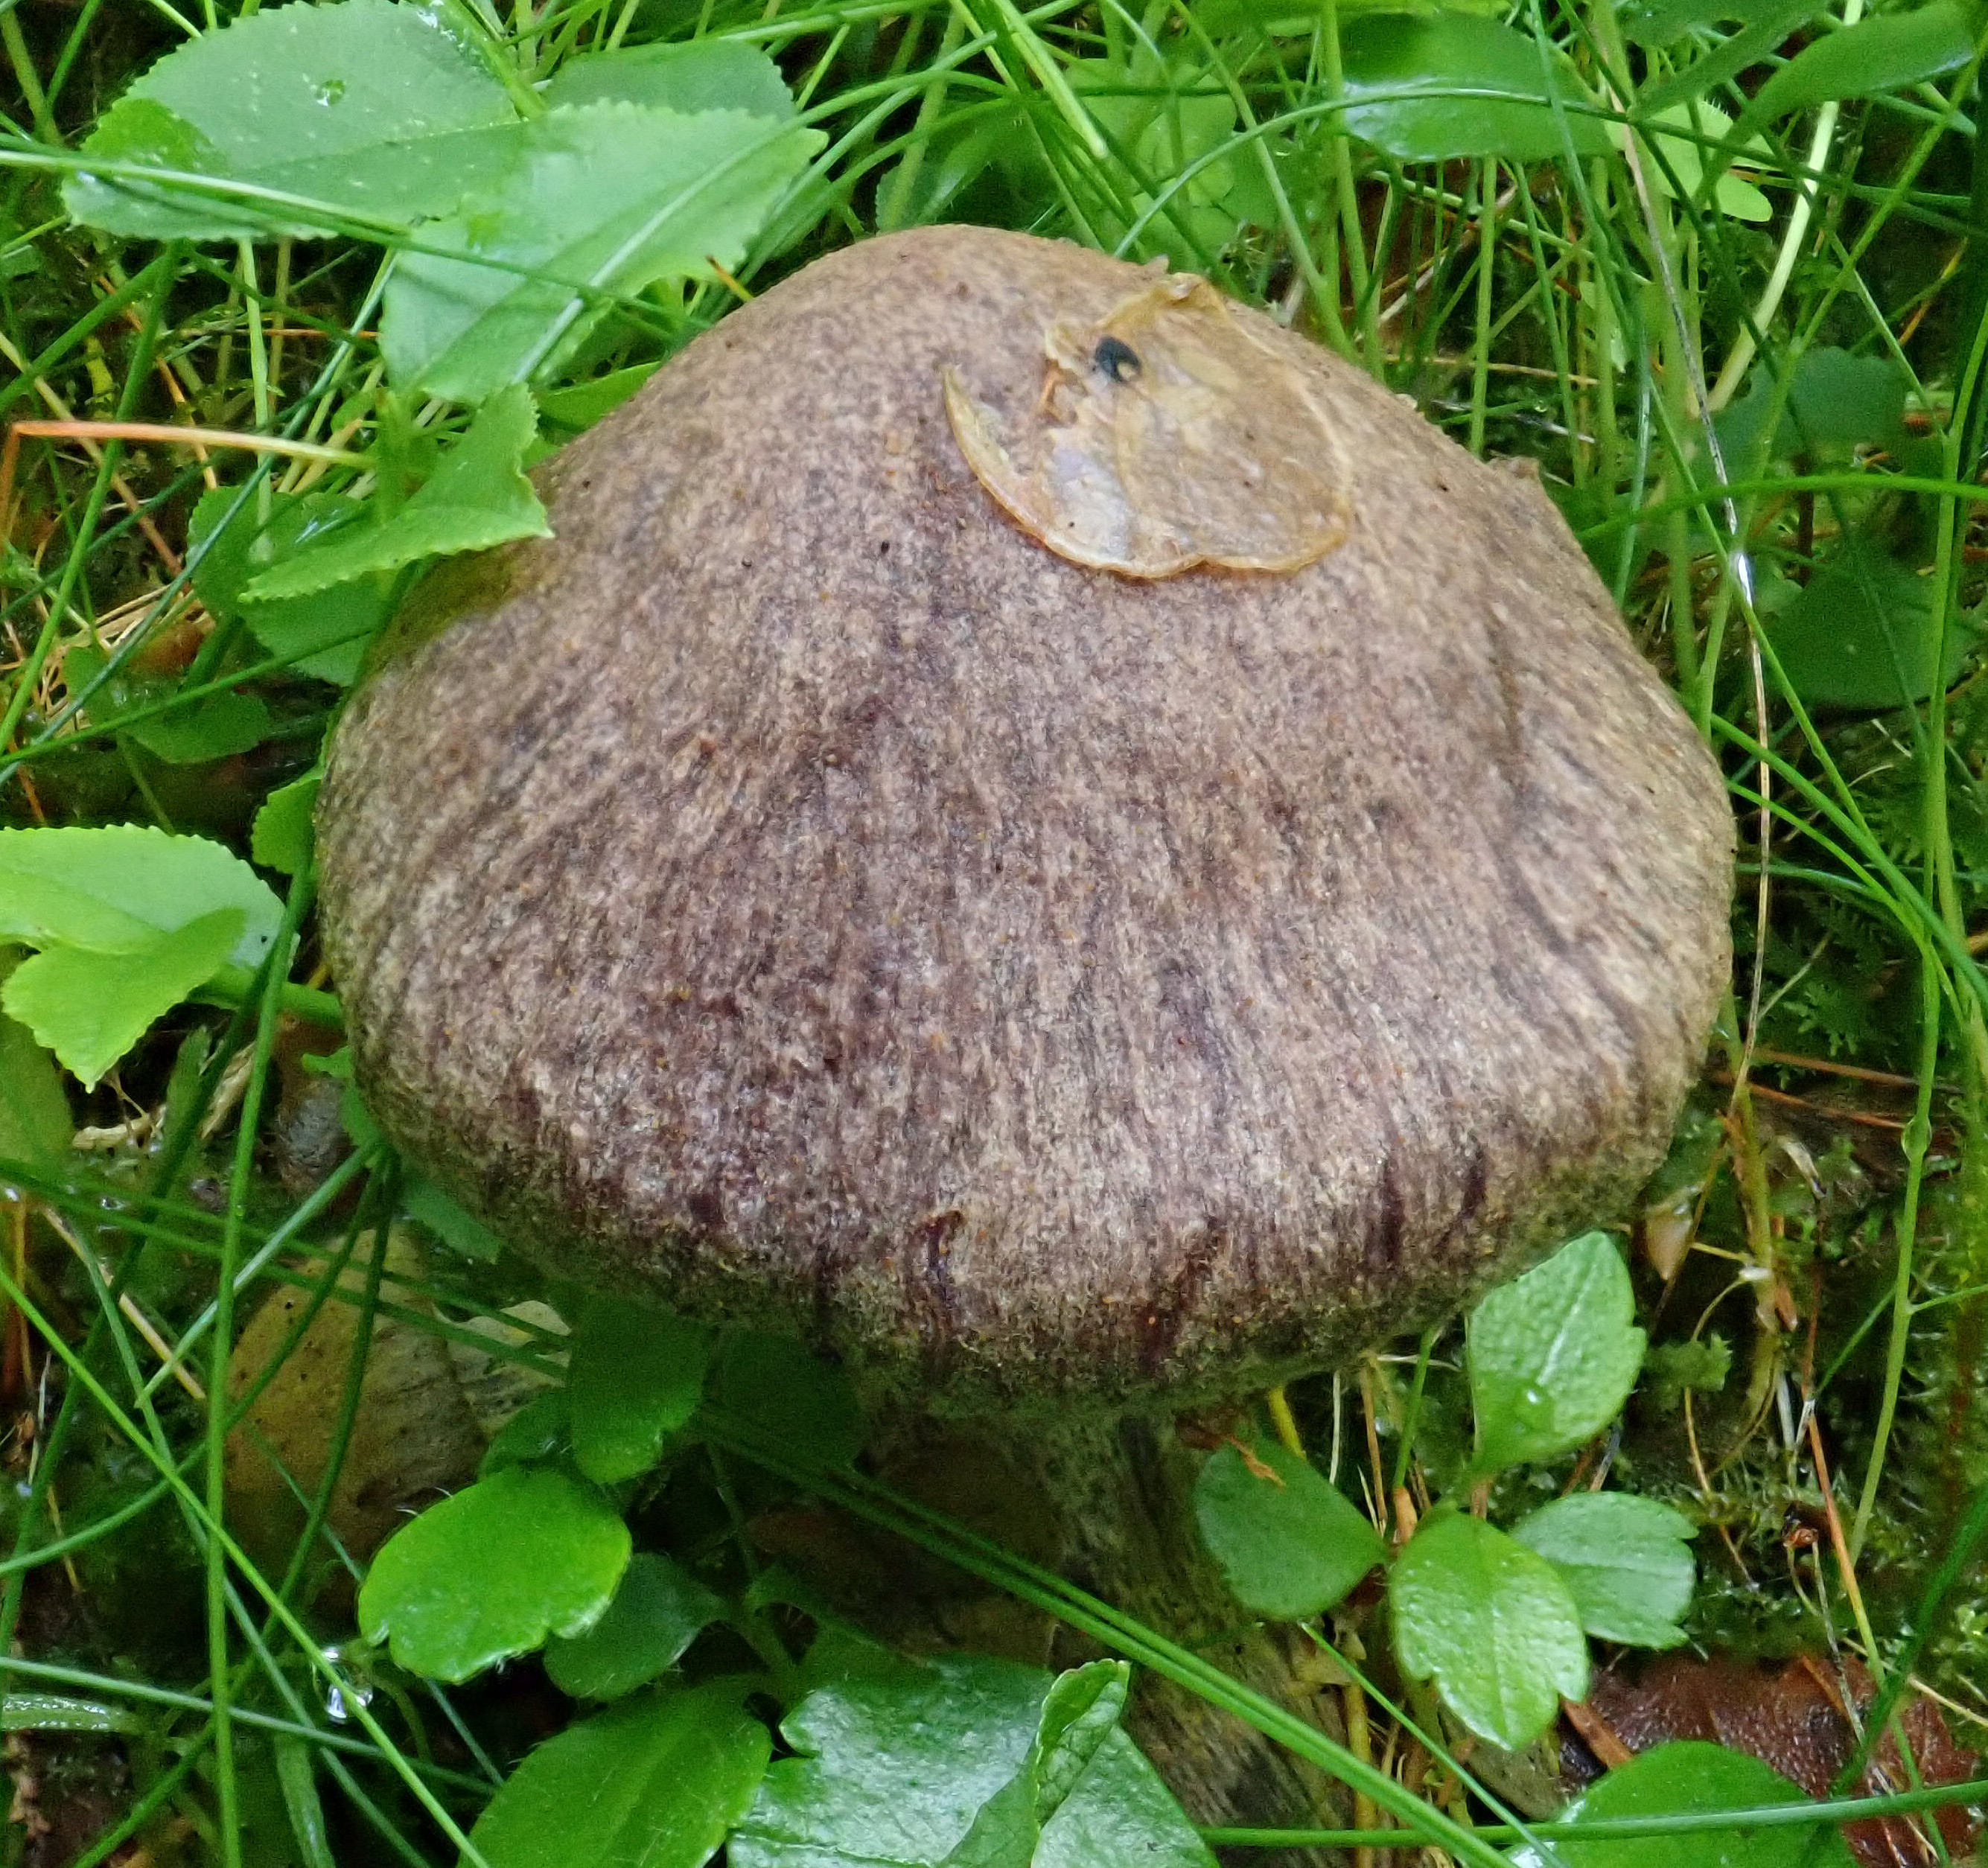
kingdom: Fungi
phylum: Basidiomycota
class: Agaricomycetes
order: Agaricales
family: Cortinariaceae
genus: Cortinarius
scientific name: Cortinarius ionophyllus
